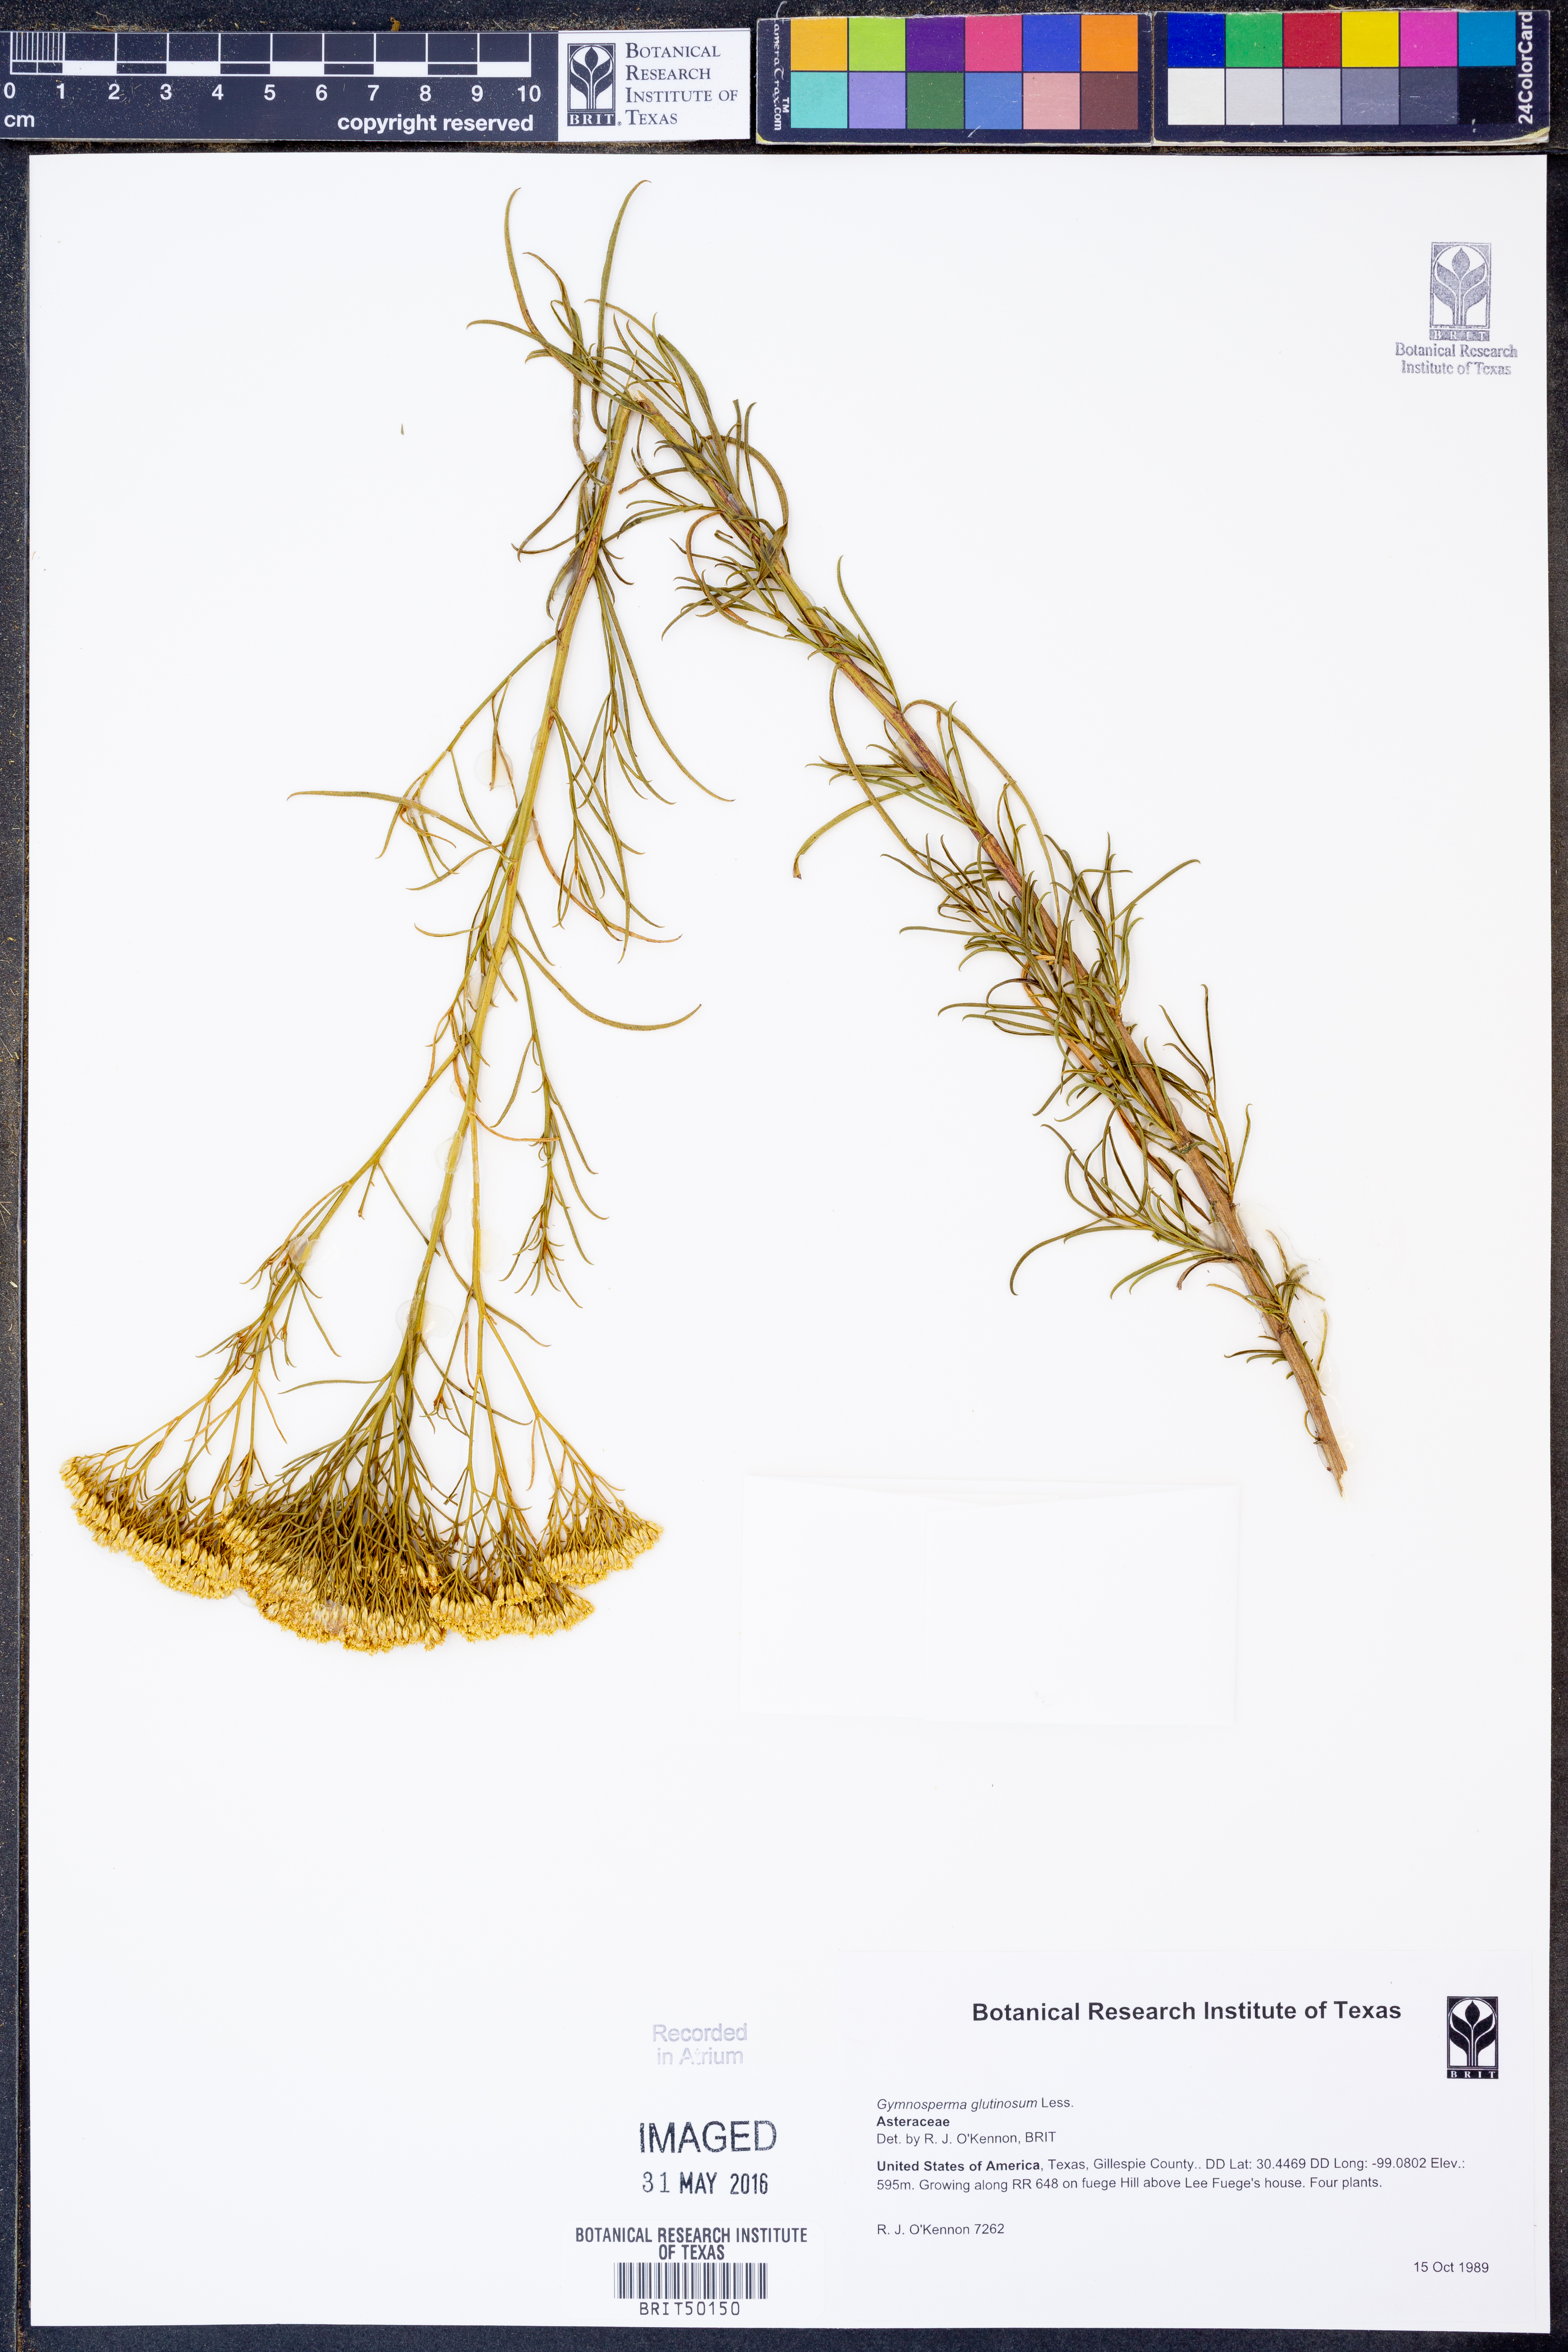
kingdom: Plantae
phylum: Tracheophyta
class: Magnoliopsida
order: Asterales
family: Asteraceae
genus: Gymnosperma
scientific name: Gymnosperma glutinosum
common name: Gumhead
